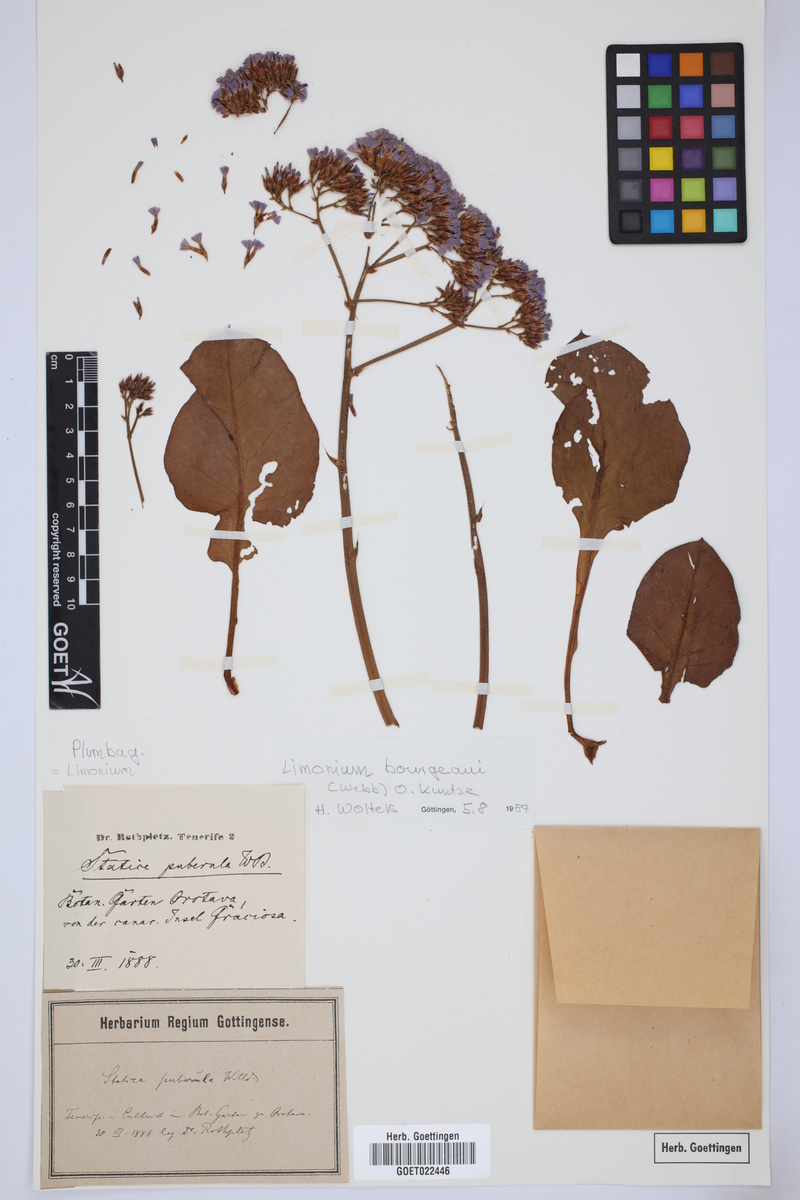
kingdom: Plantae
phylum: Tracheophyta
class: Magnoliopsida
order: Caryophyllales
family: Plumbaginaceae
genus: Limonium
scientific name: Limonium bourgeaui
